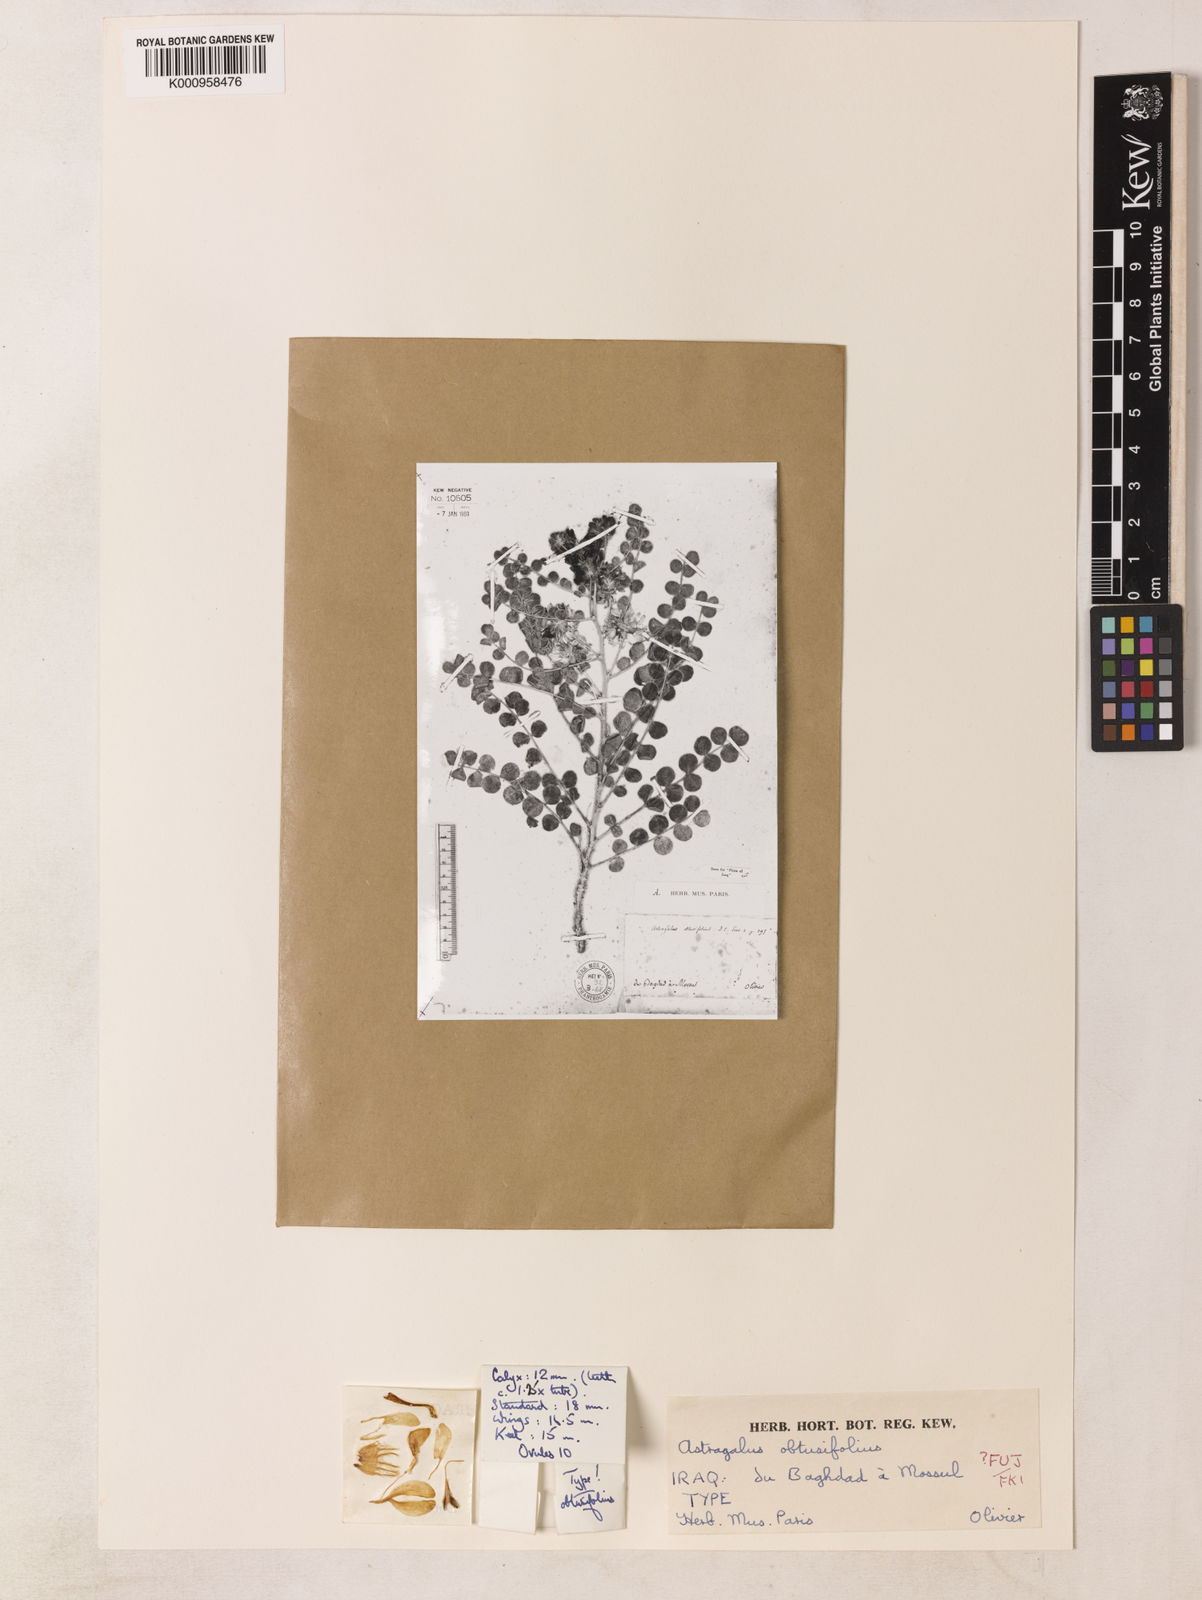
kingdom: Plantae
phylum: Tracheophyta
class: Magnoliopsida
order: Fabales
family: Fabaceae
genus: Astragalus
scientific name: Astragalus obtusifolius
